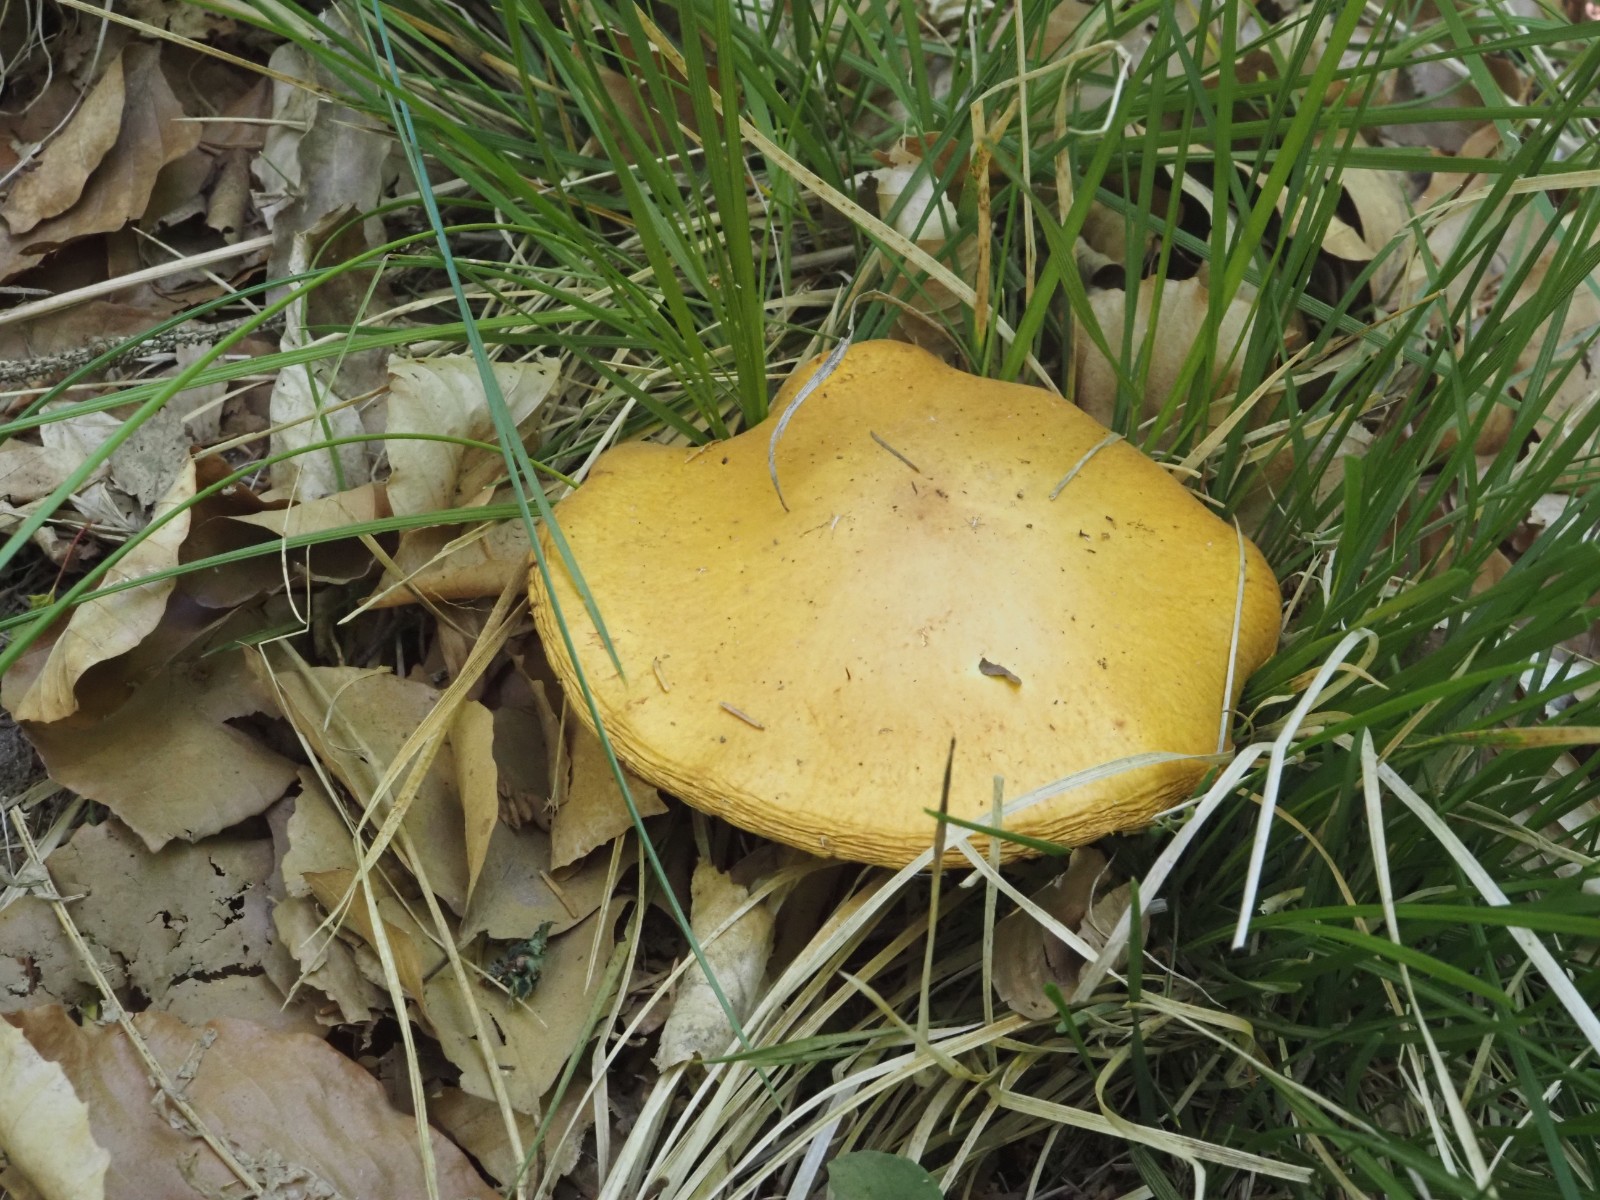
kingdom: Fungi
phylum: Basidiomycota
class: Agaricomycetes
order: Boletales
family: Suillaceae
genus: Suillus
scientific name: Suillus grevillei
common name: lærke-slimrørhat
